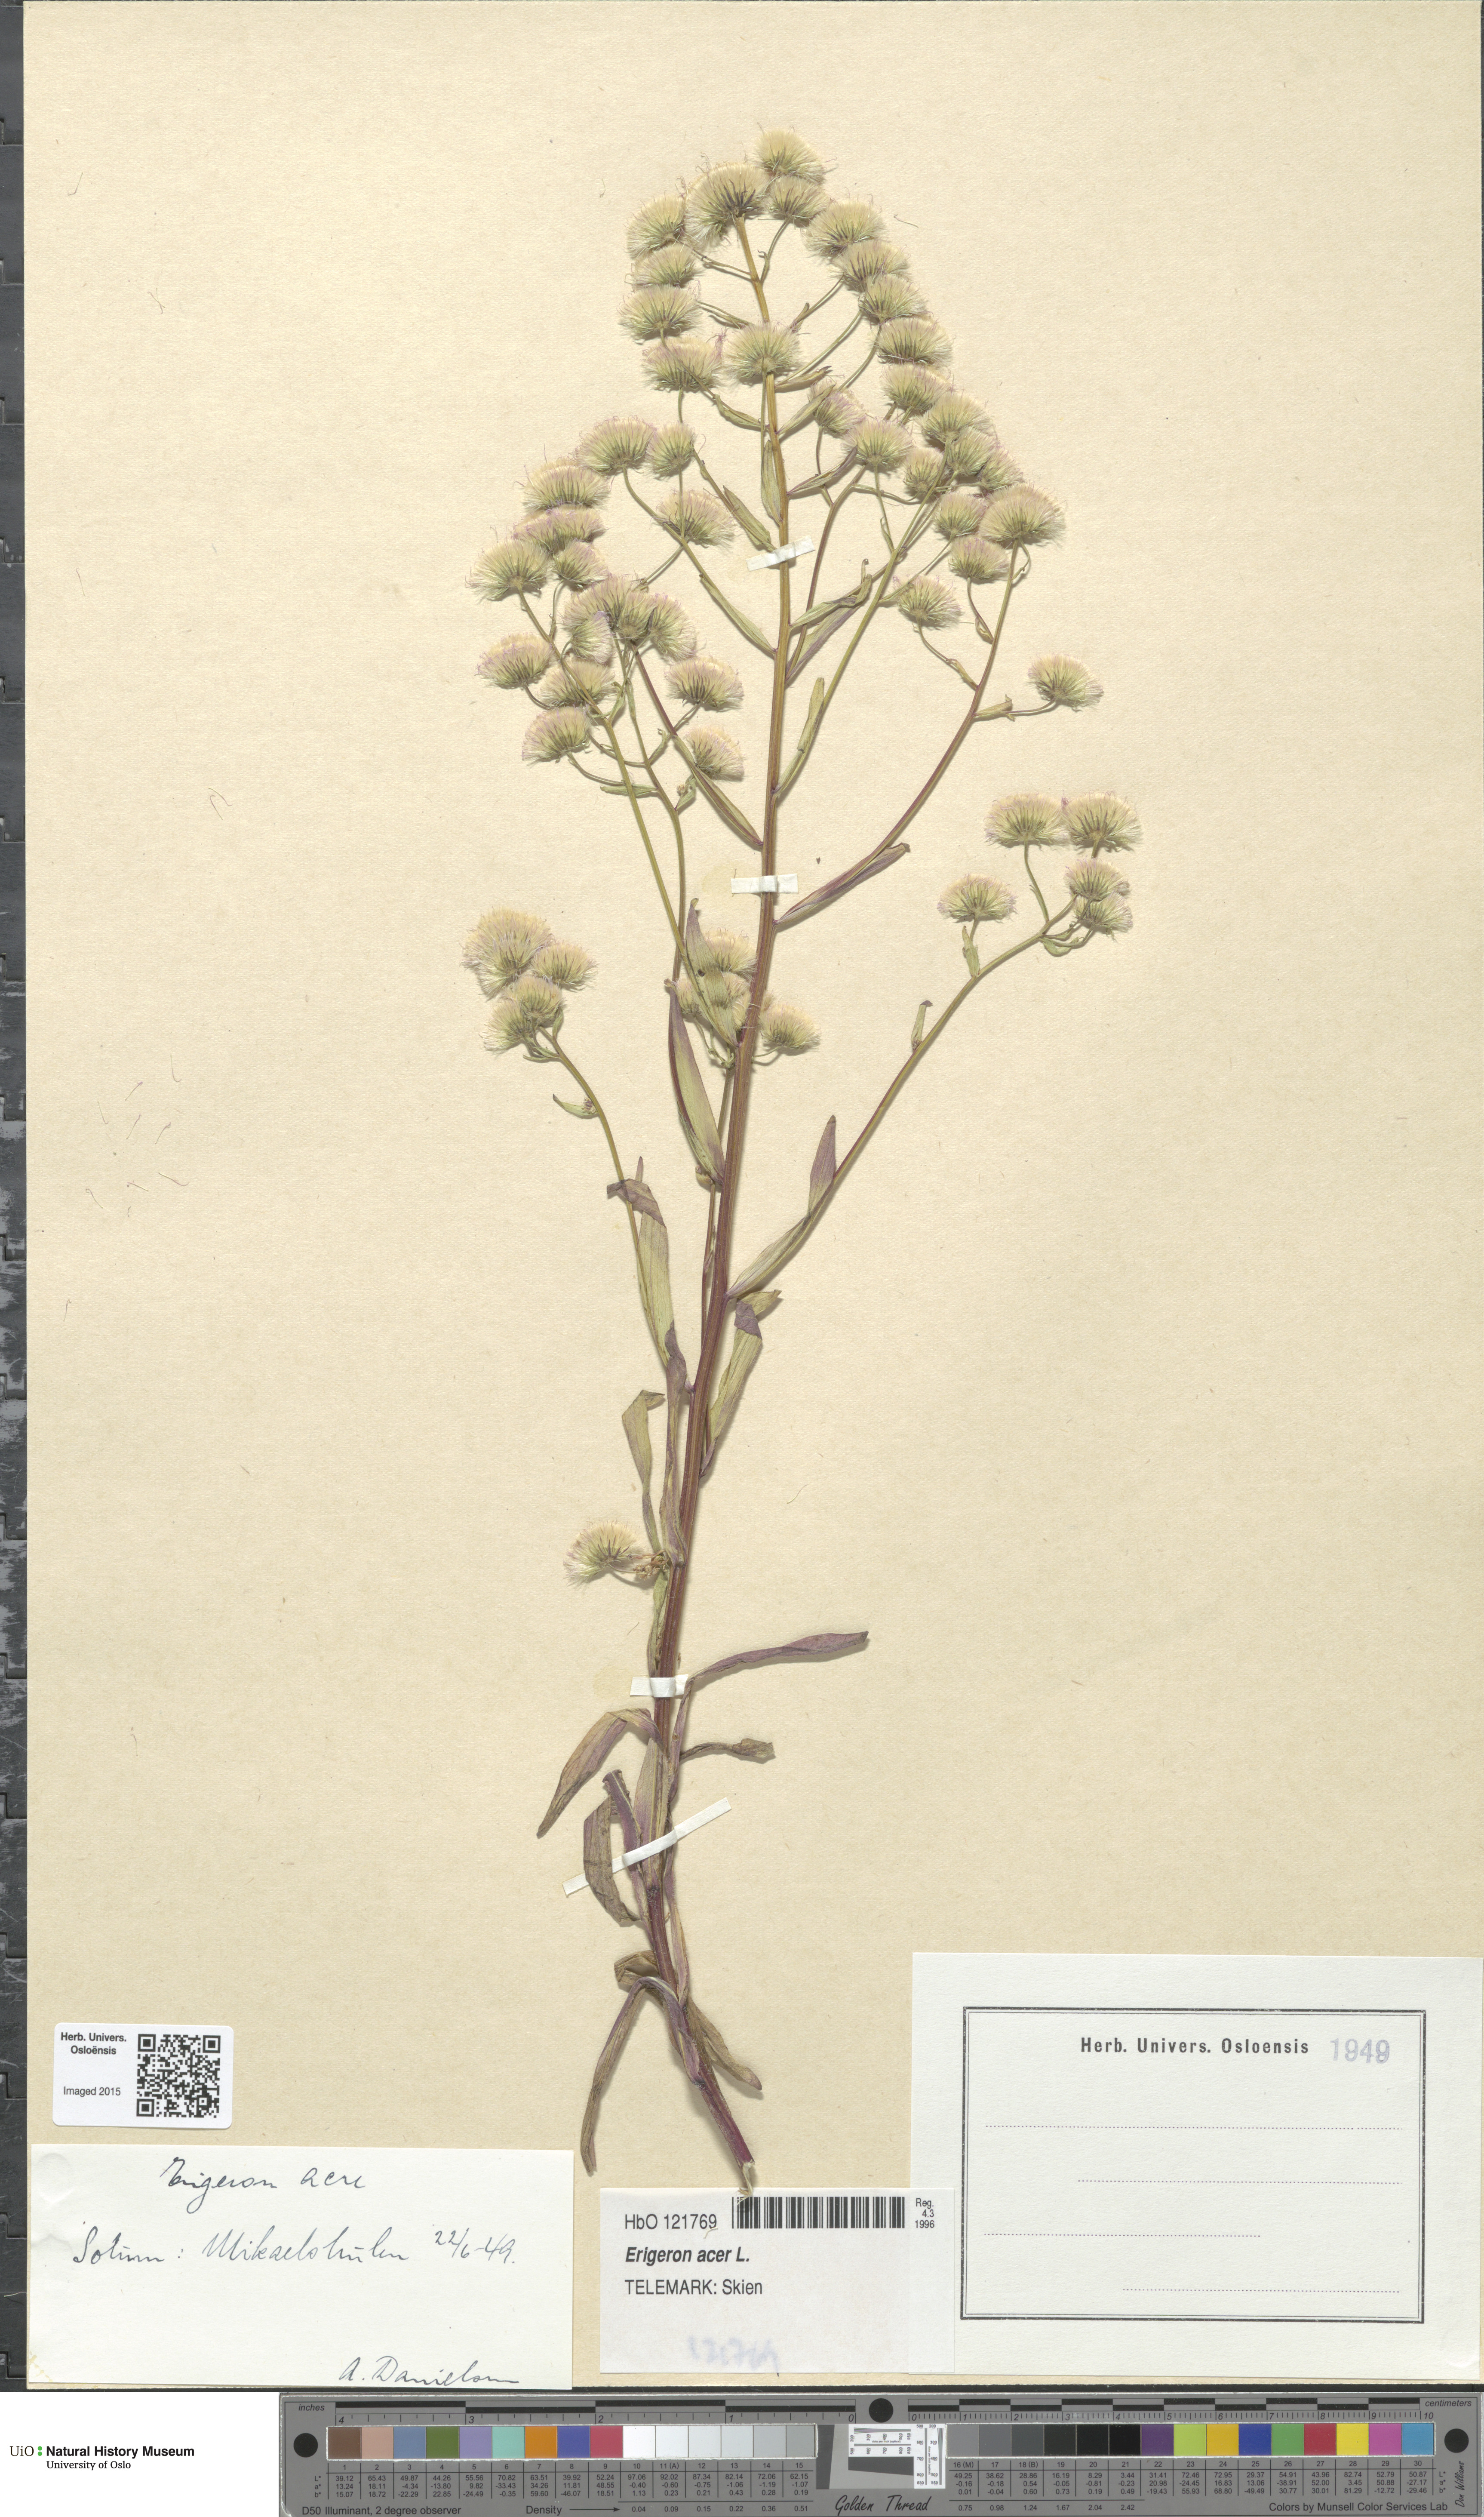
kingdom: Plantae
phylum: Tracheophyta
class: Magnoliopsida
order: Asterales
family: Asteraceae
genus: Erigeron
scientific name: Erigeron acris
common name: Blue fleabane
